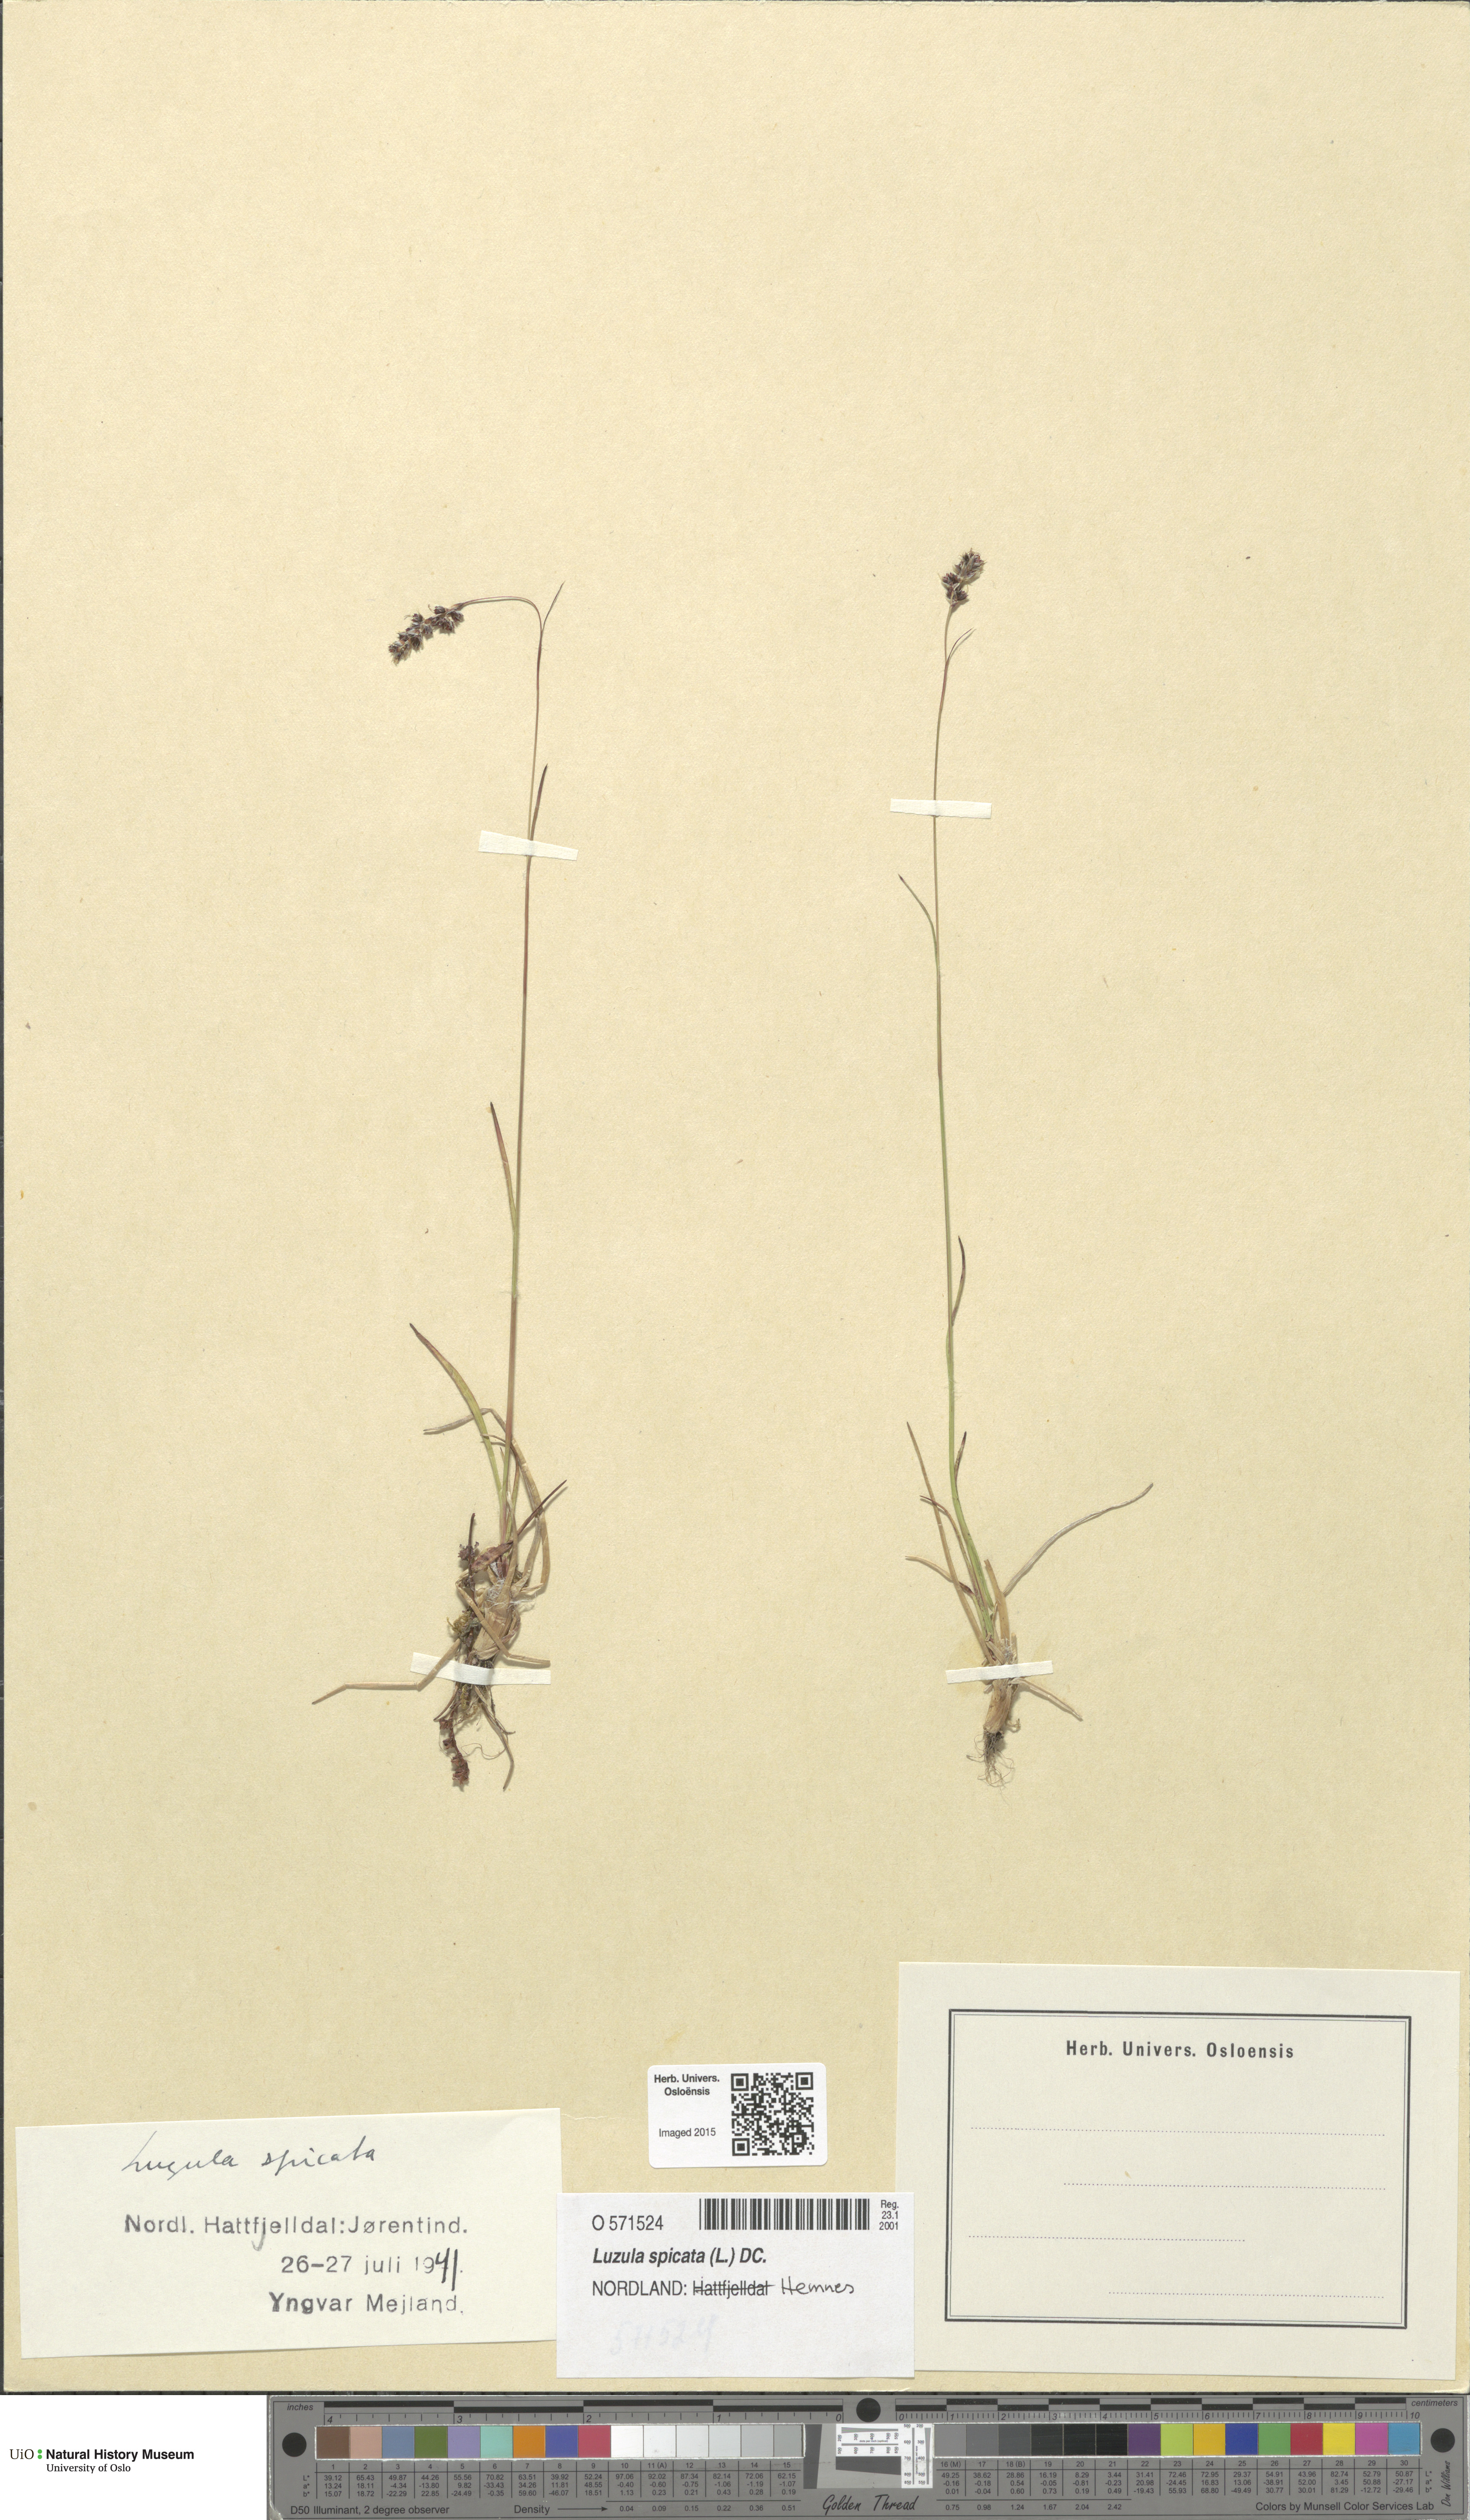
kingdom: Plantae
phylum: Tracheophyta
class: Liliopsida
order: Poales
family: Juncaceae
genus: Luzula
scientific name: Luzula spicata
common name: Spiked wood-rush
